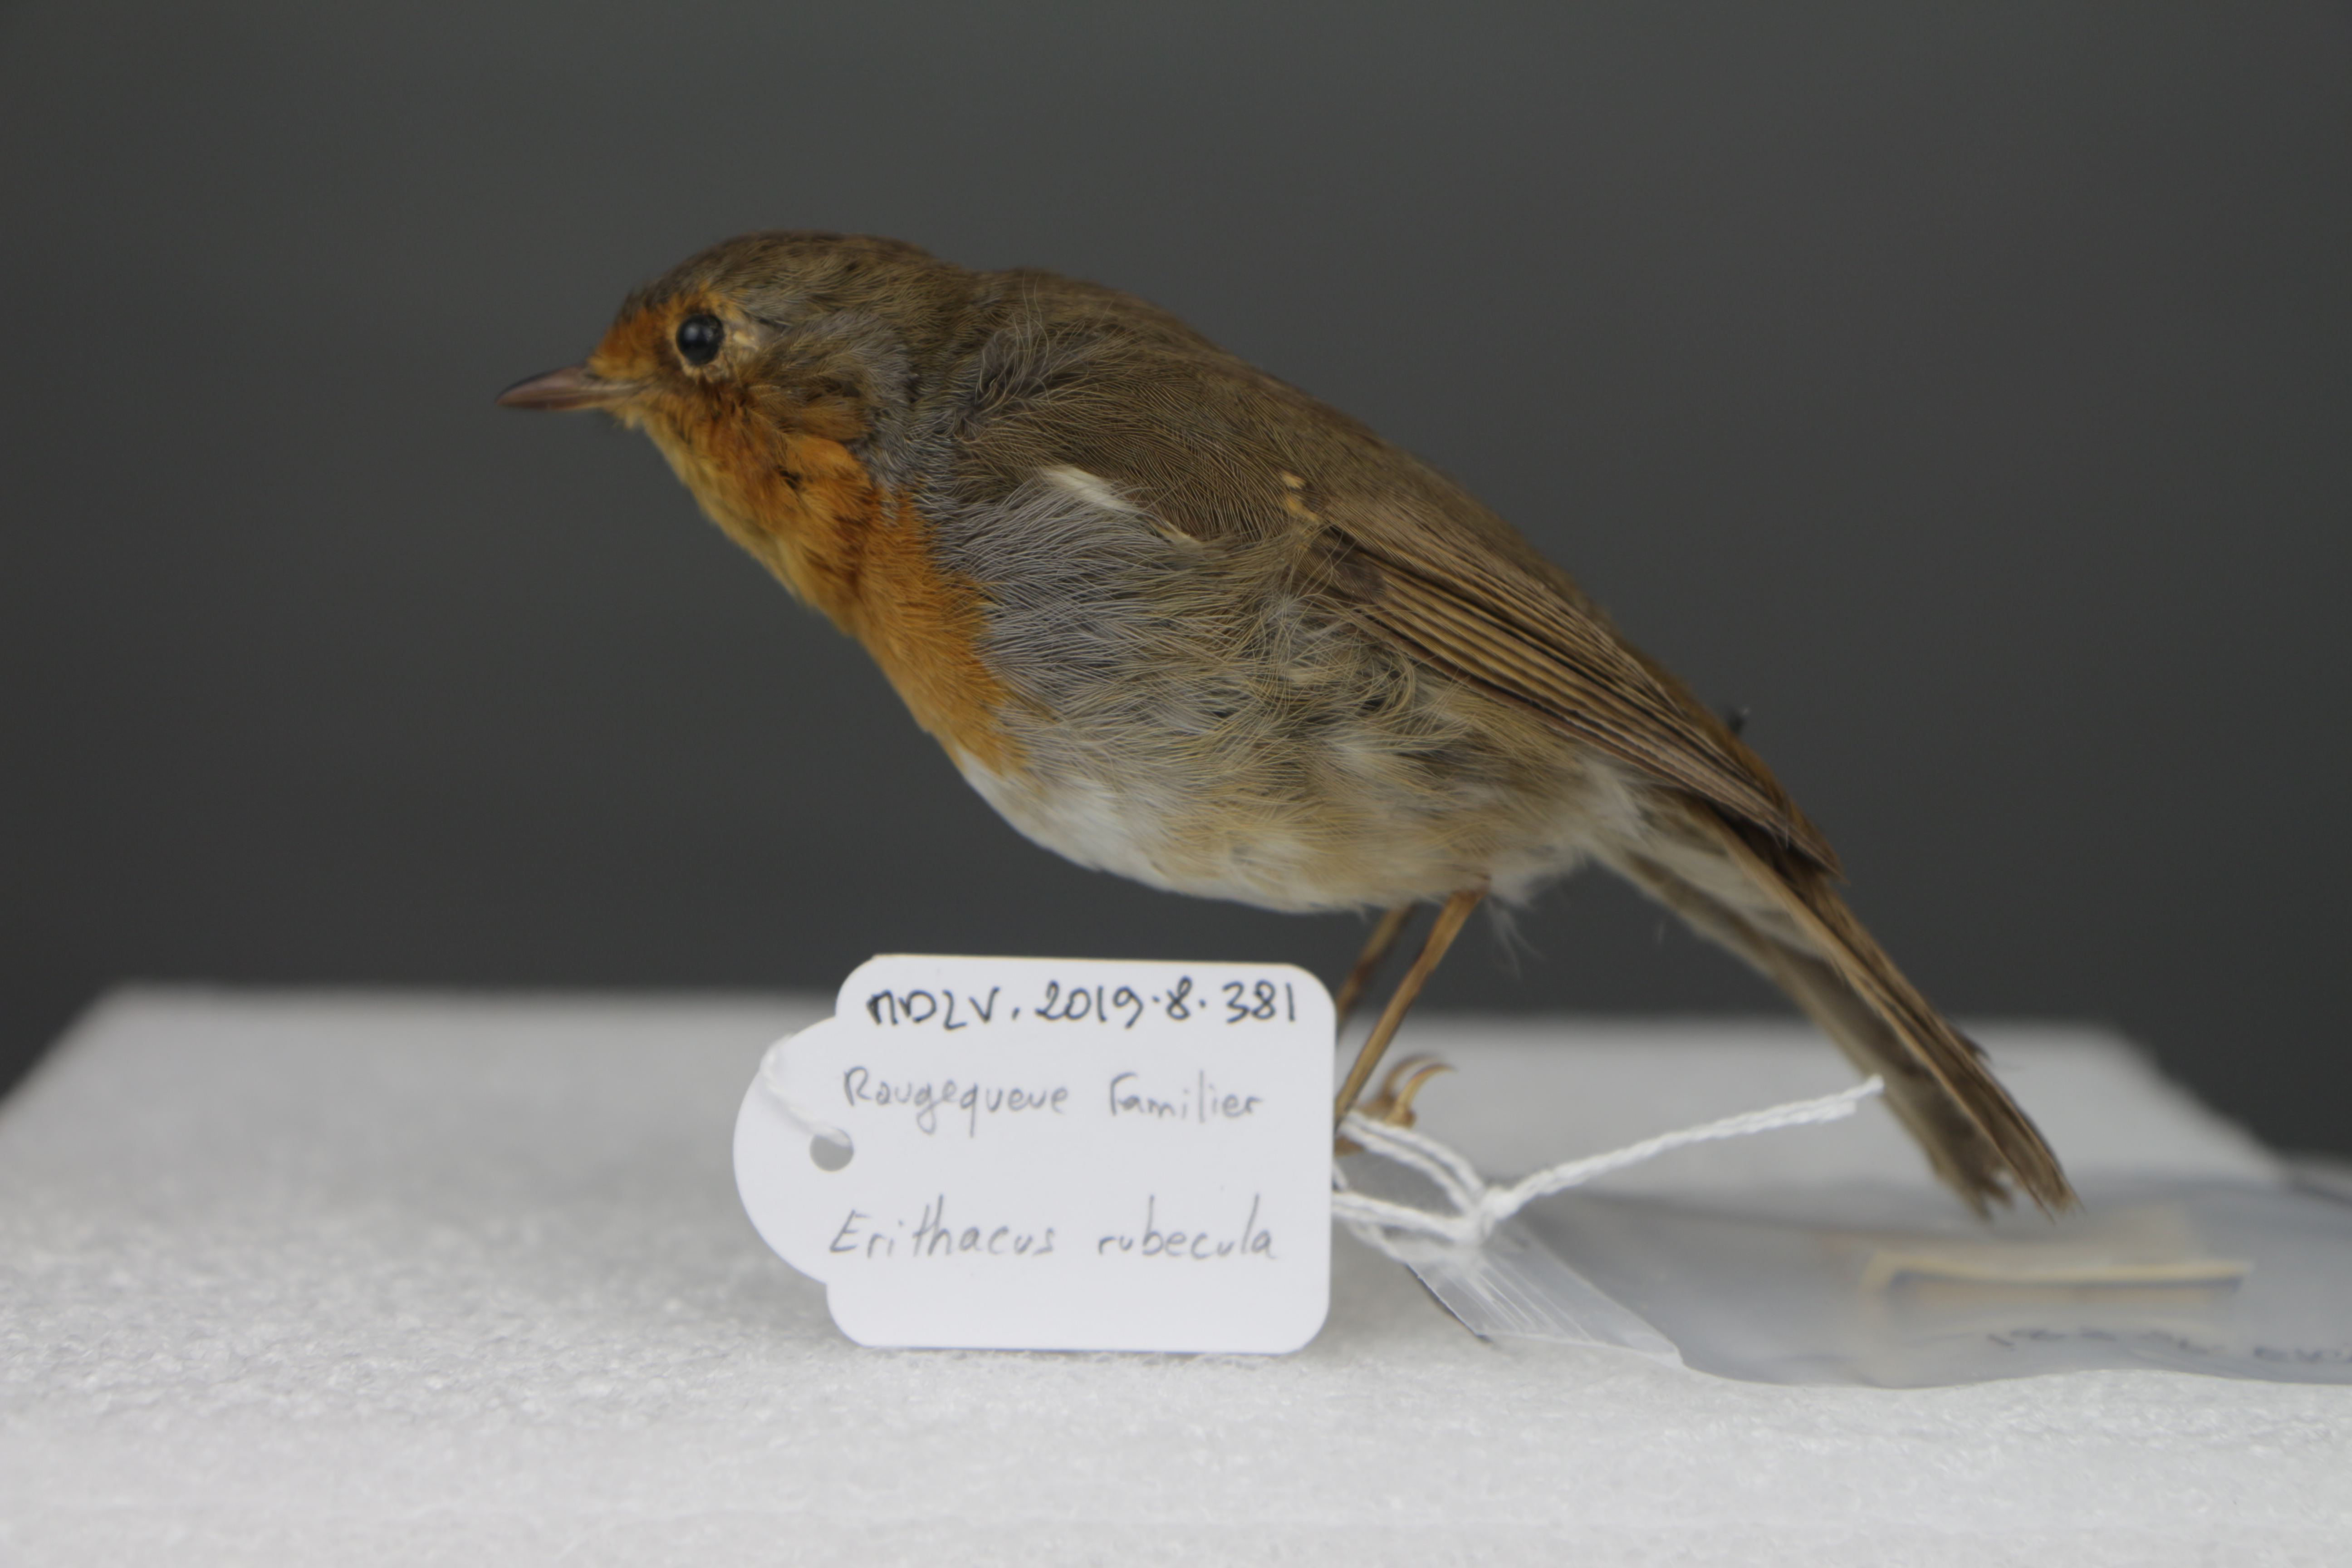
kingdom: Animalia
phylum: Chordata
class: Aves
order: Passeriformes
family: Muscicapidae
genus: Erithacus
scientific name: Erithacus rubecula
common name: European robin
